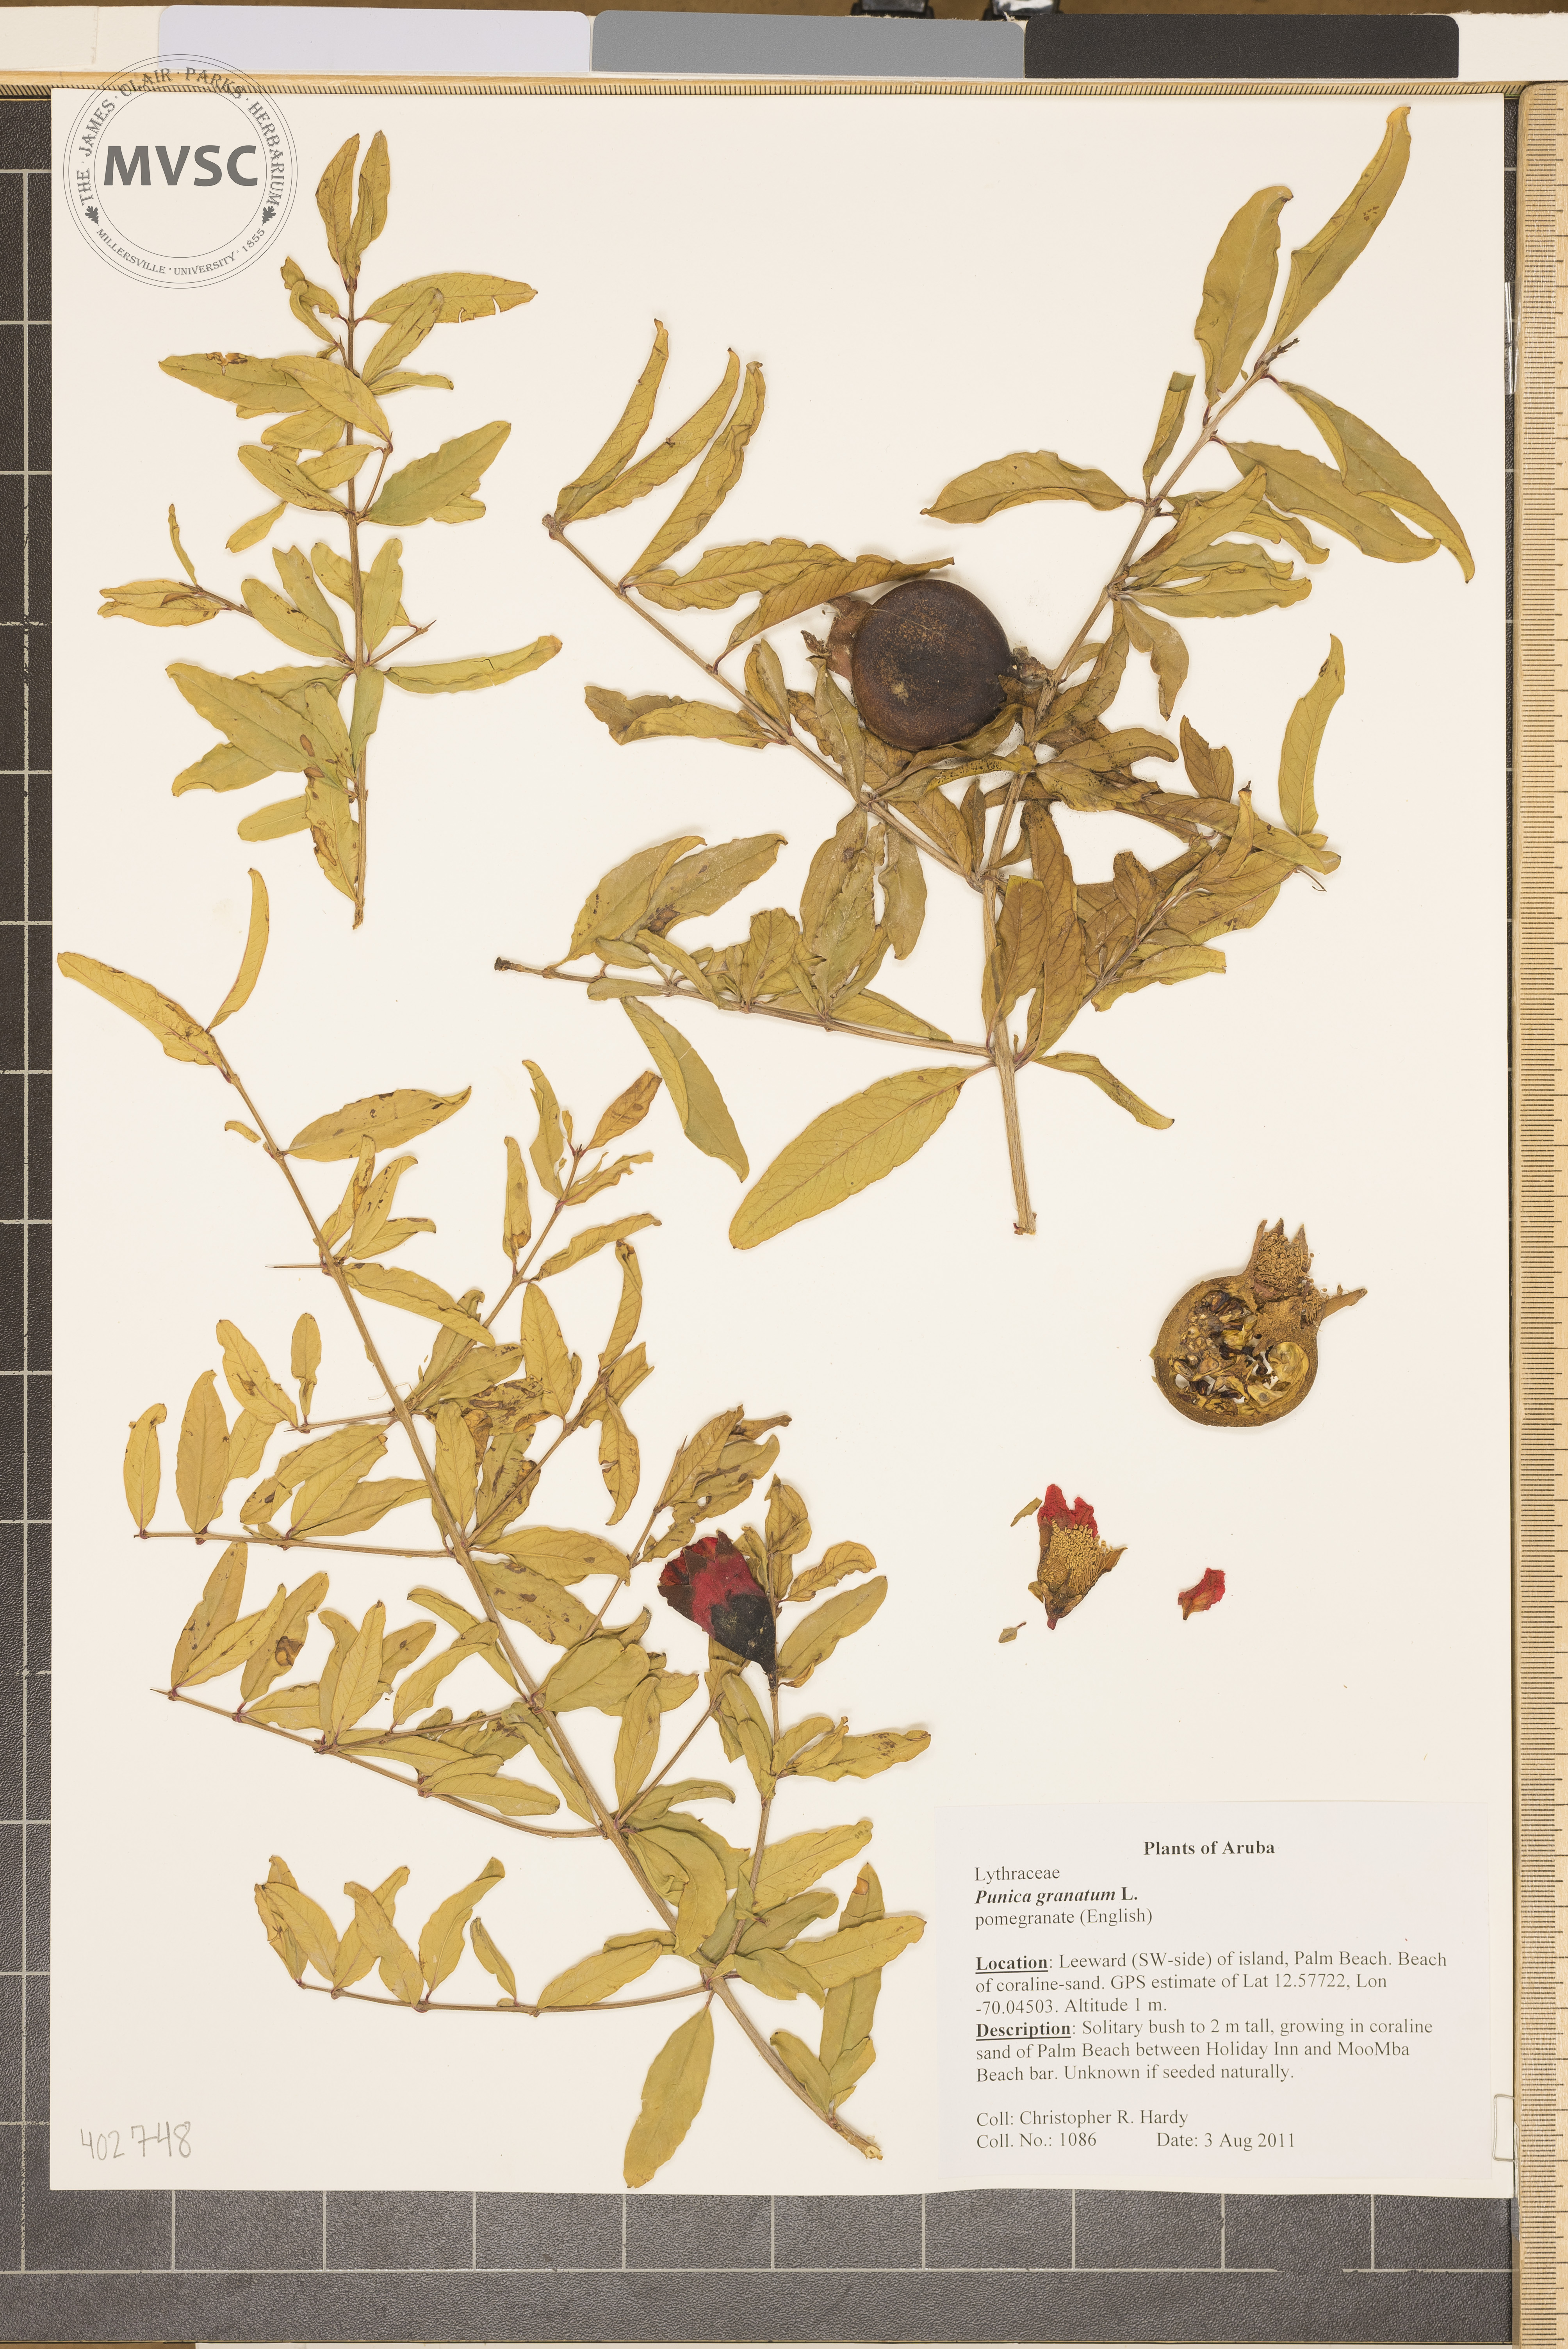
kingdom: Plantae
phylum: Tracheophyta
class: Magnoliopsida
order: Myrtales
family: Lythraceae
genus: Punica
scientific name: Punica granatum
